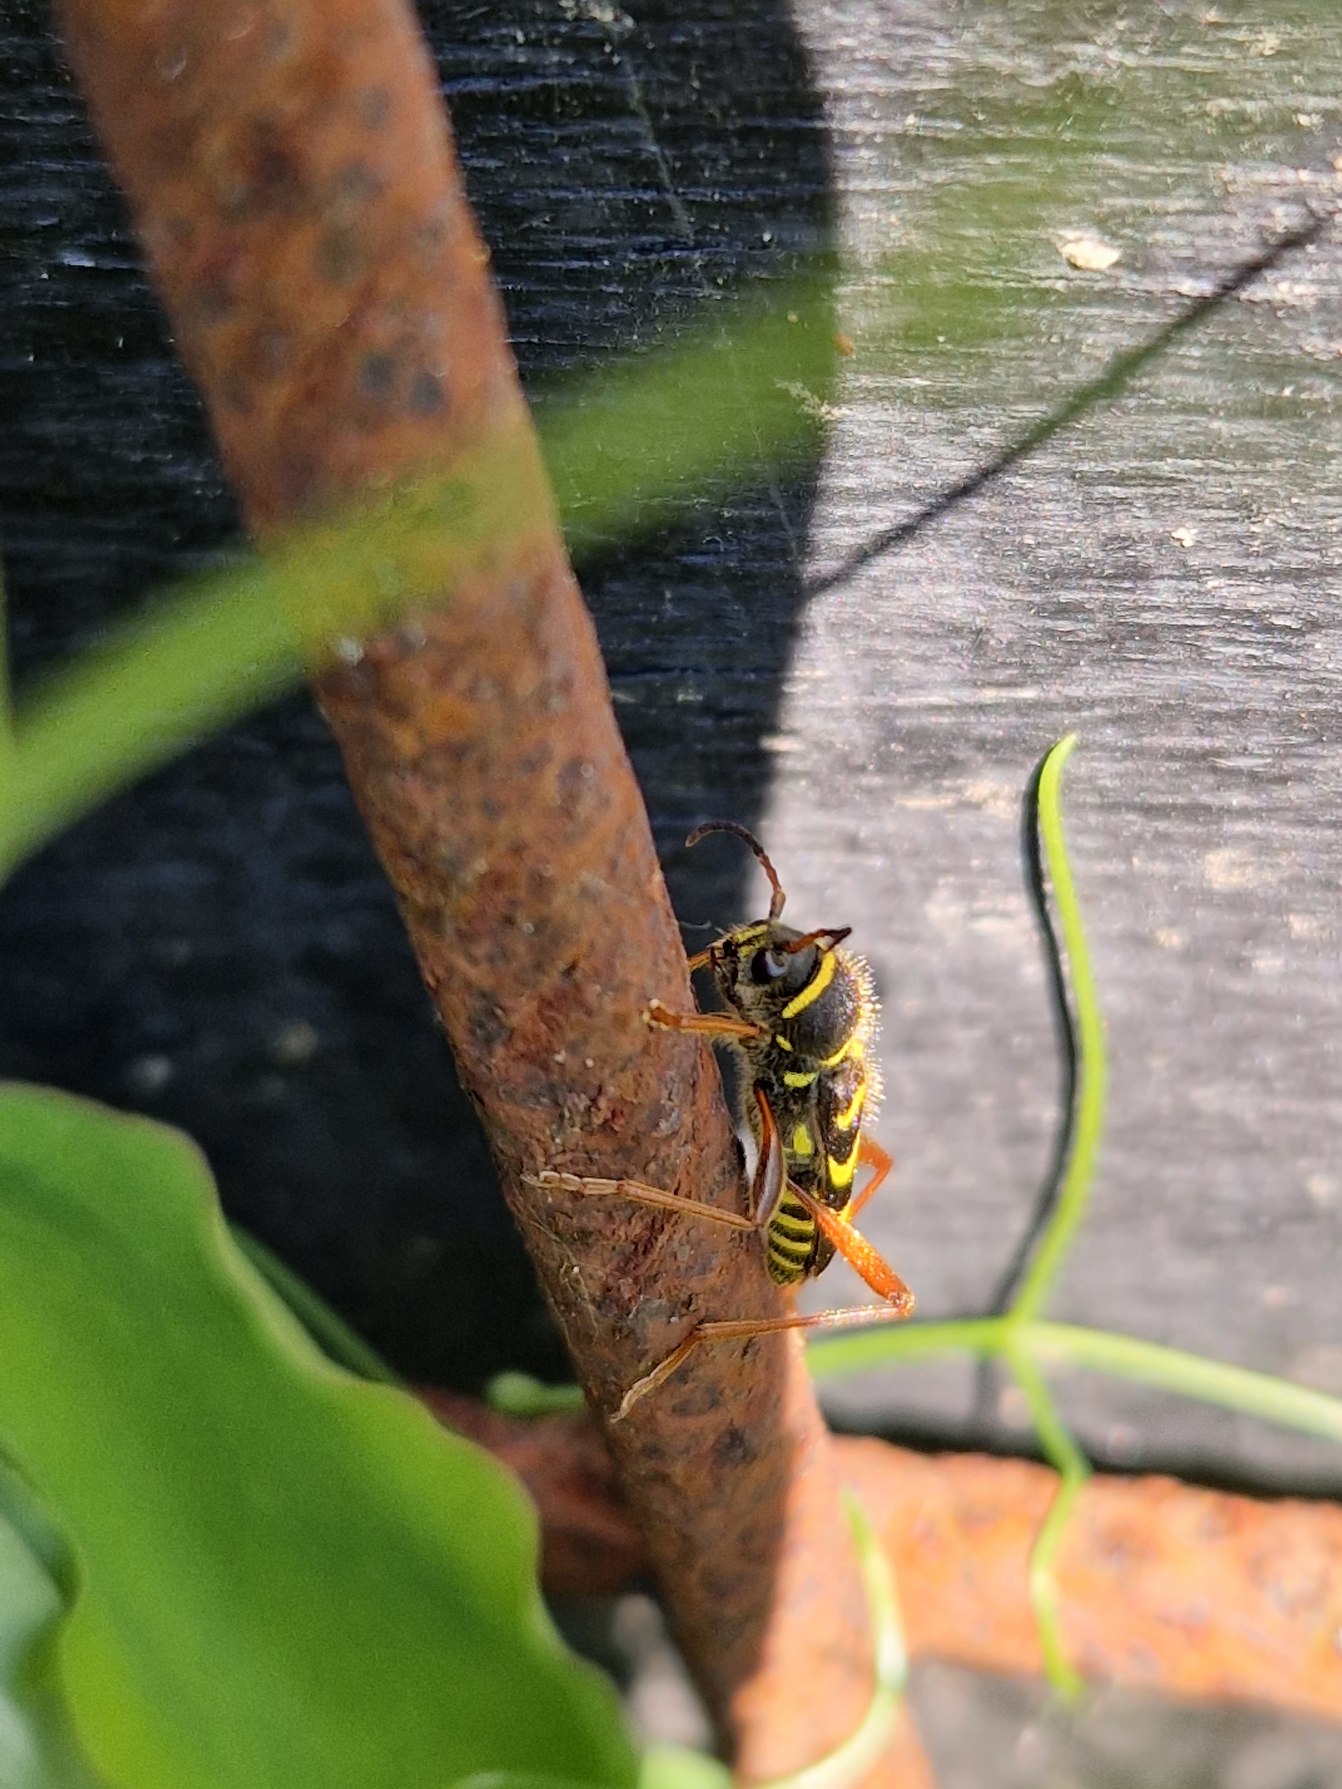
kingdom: Animalia
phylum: Arthropoda
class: Insecta
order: Coleoptera
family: Cerambycidae
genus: Clytus
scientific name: Clytus arietis
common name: Lille hvepsebuk
